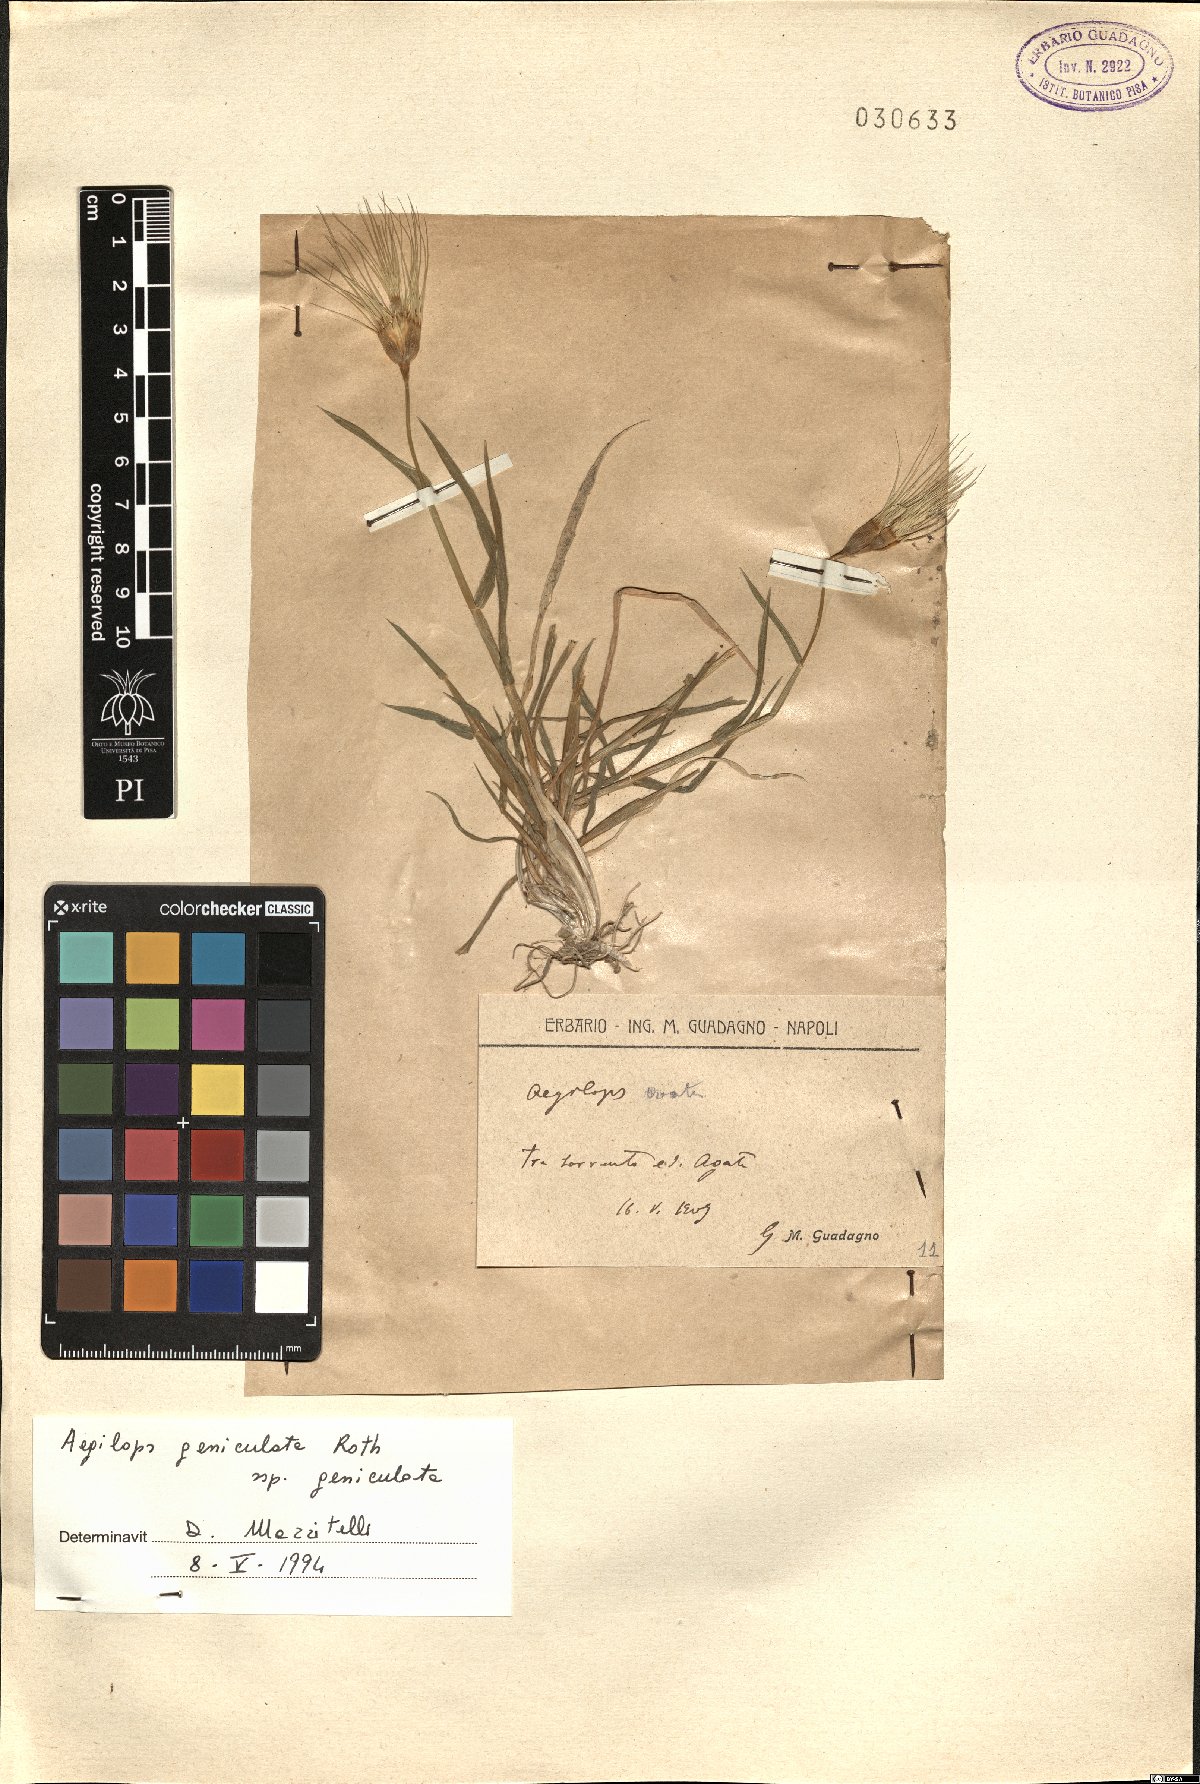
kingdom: Plantae
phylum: Tracheophyta
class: Liliopsida
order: Poales
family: Poaceae
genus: Aegilops
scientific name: Aegilops geniculata
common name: Ovate goat grass
